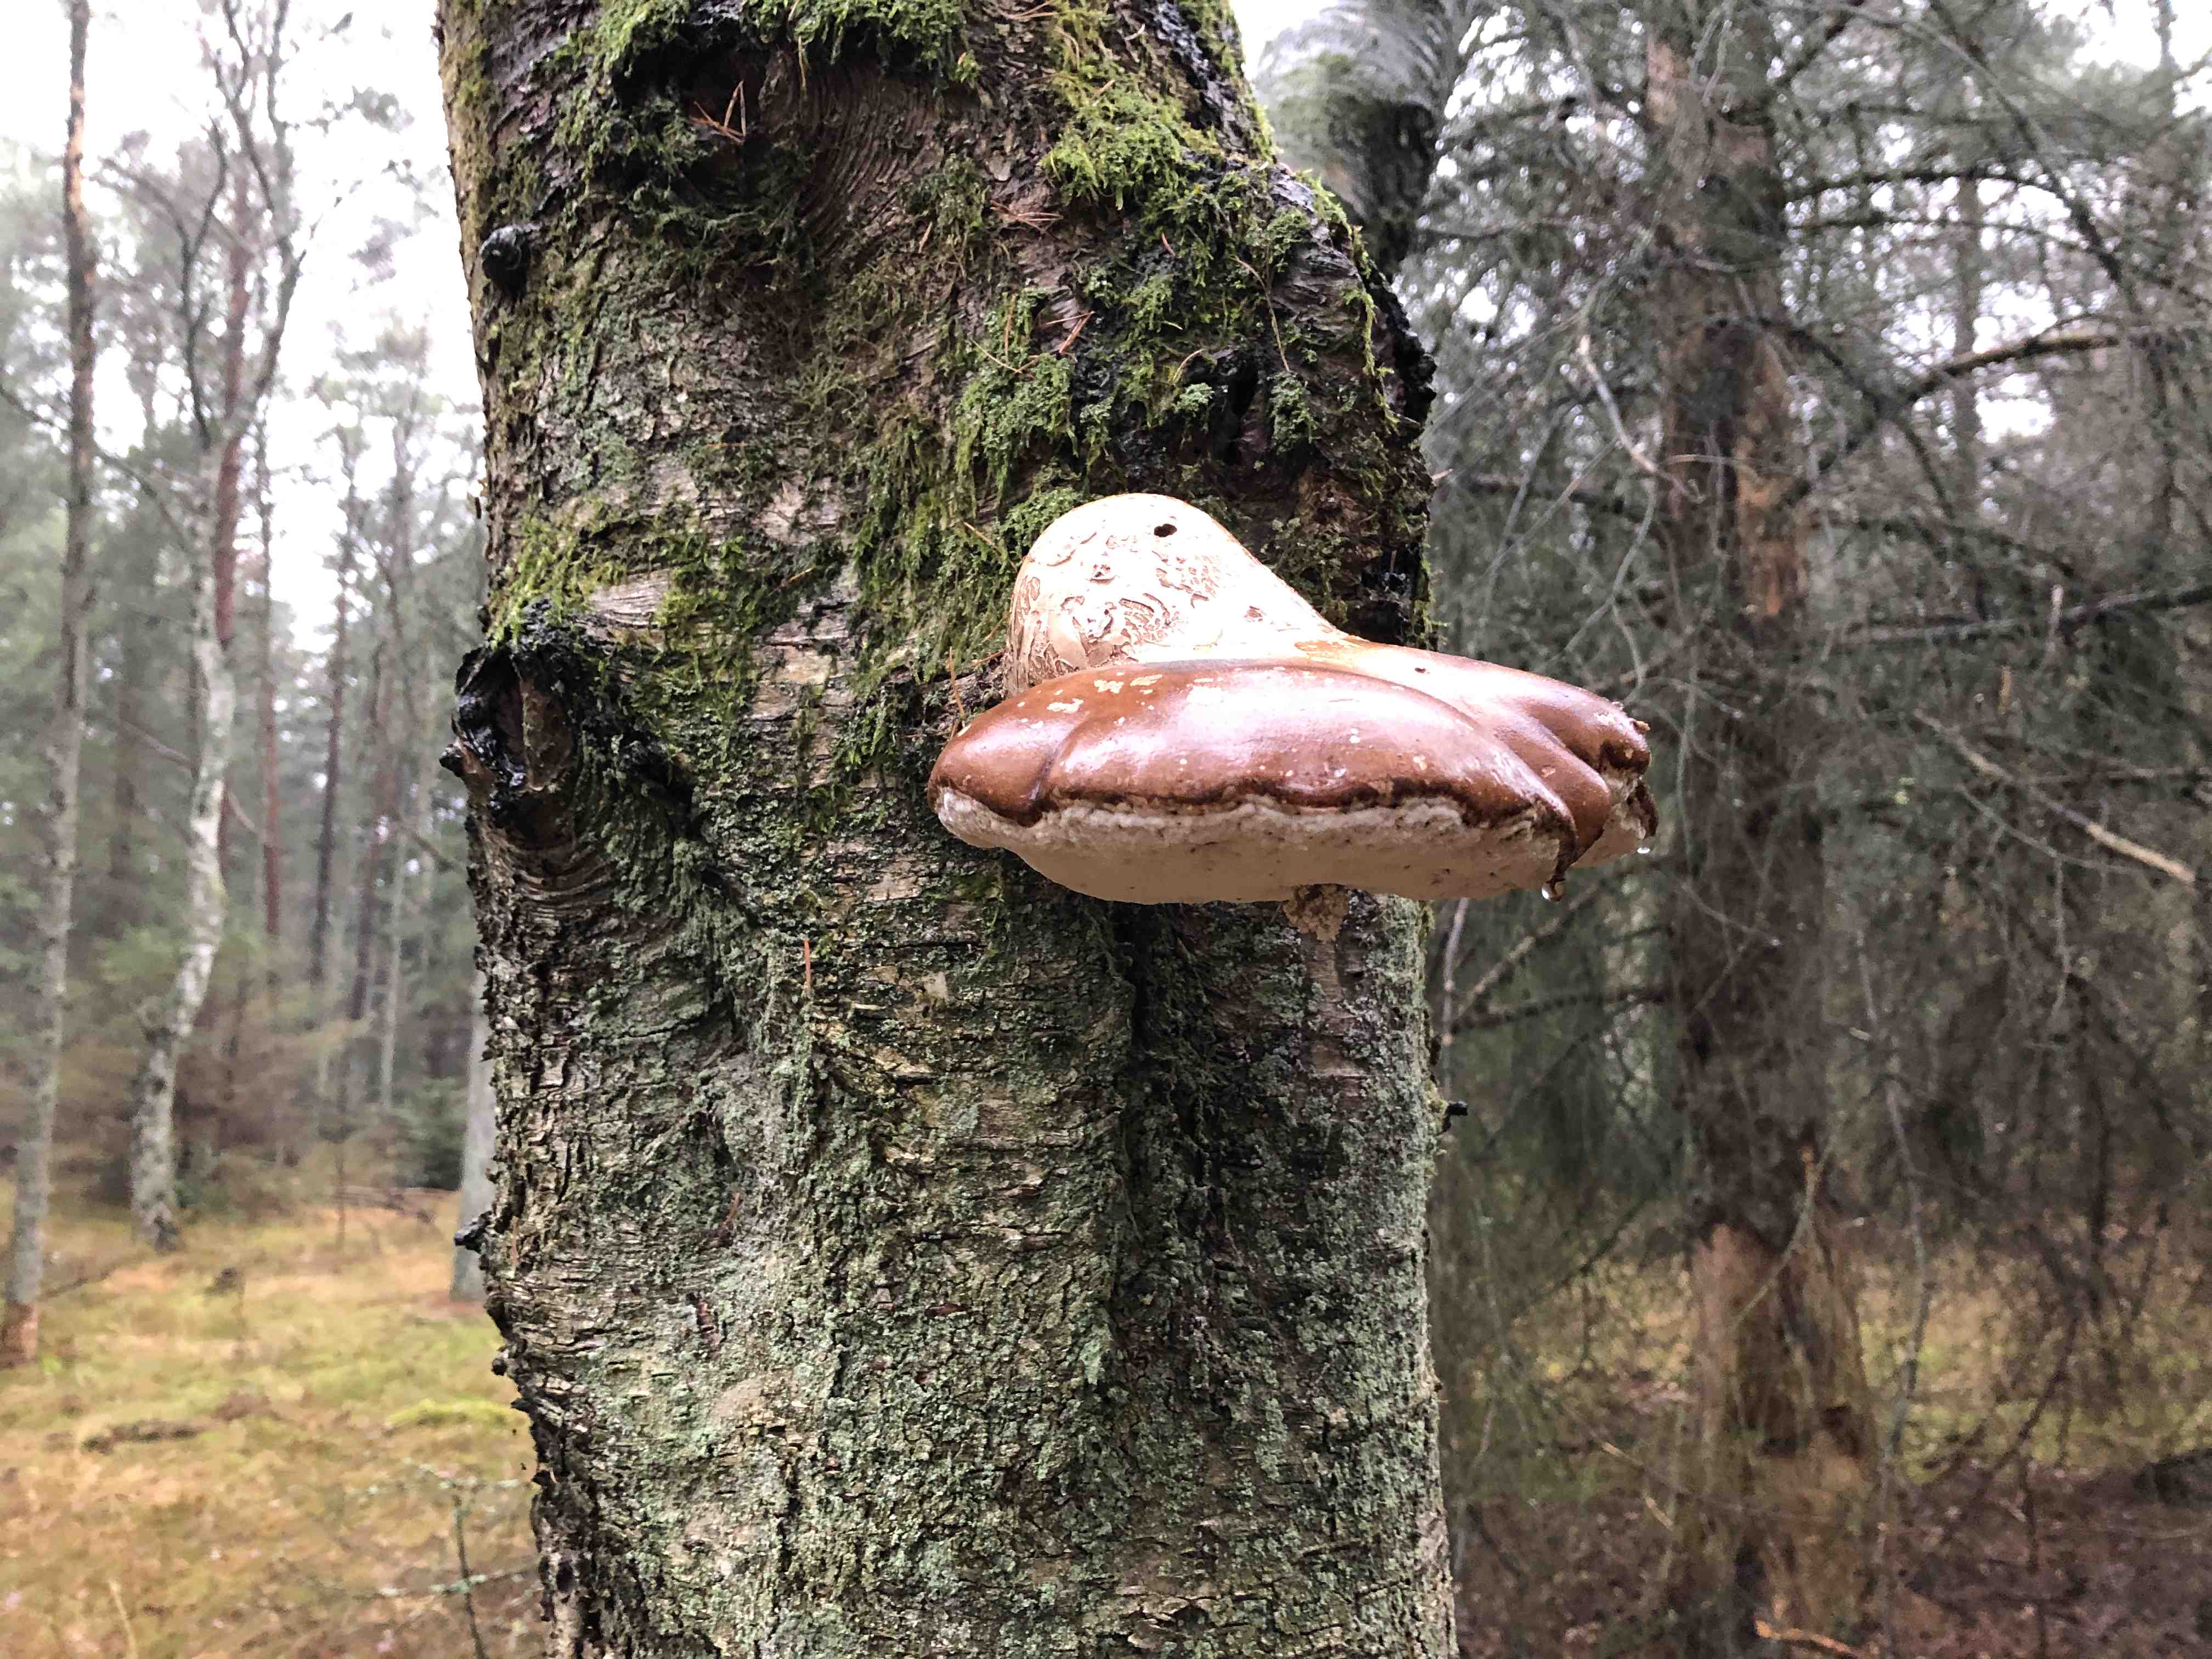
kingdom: Fungi
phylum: Basidiomycota
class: Agaricomycetes
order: Polyporales
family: Fomitopsidaceae
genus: Fomitopsis
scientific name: Fomitopsis betulina
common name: birkeporesvamp
